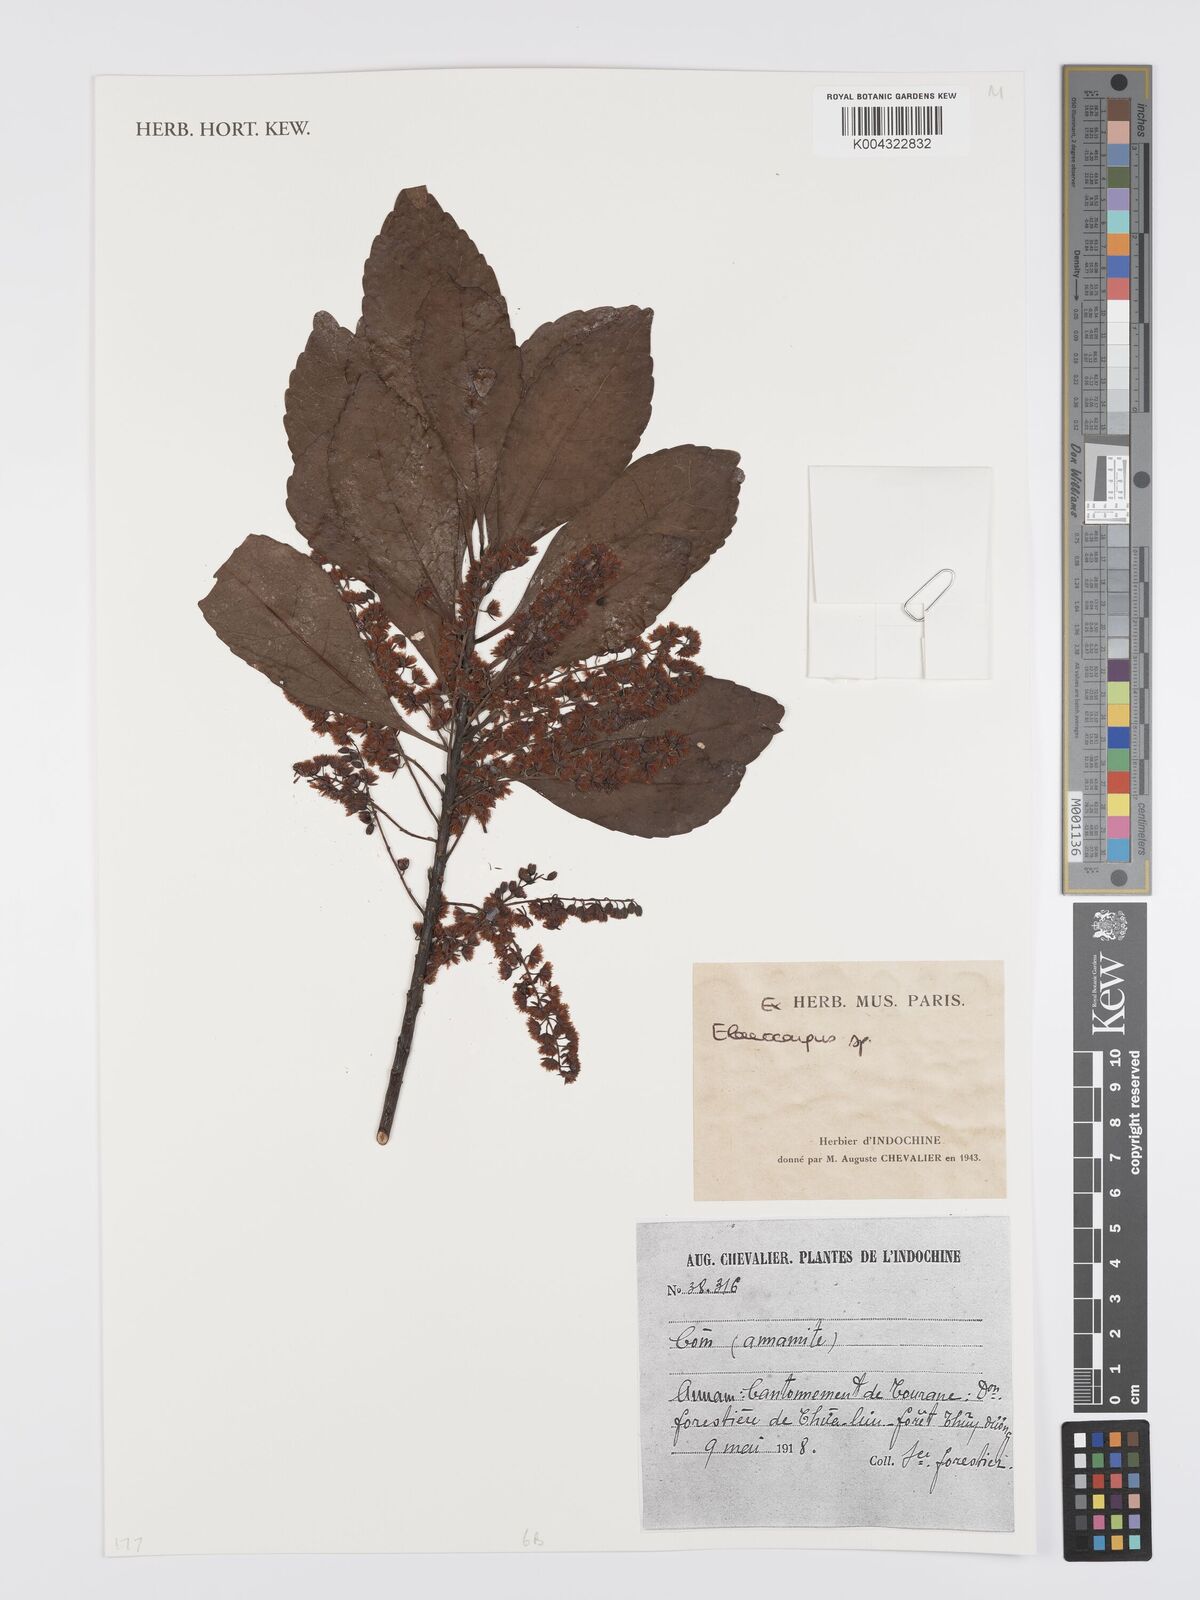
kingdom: Plantae
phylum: Tracheophyta
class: Magnoliopsida
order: Oxalidales
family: Elaeocarpaceae
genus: Elaeocarpus
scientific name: Elaeocarpus
